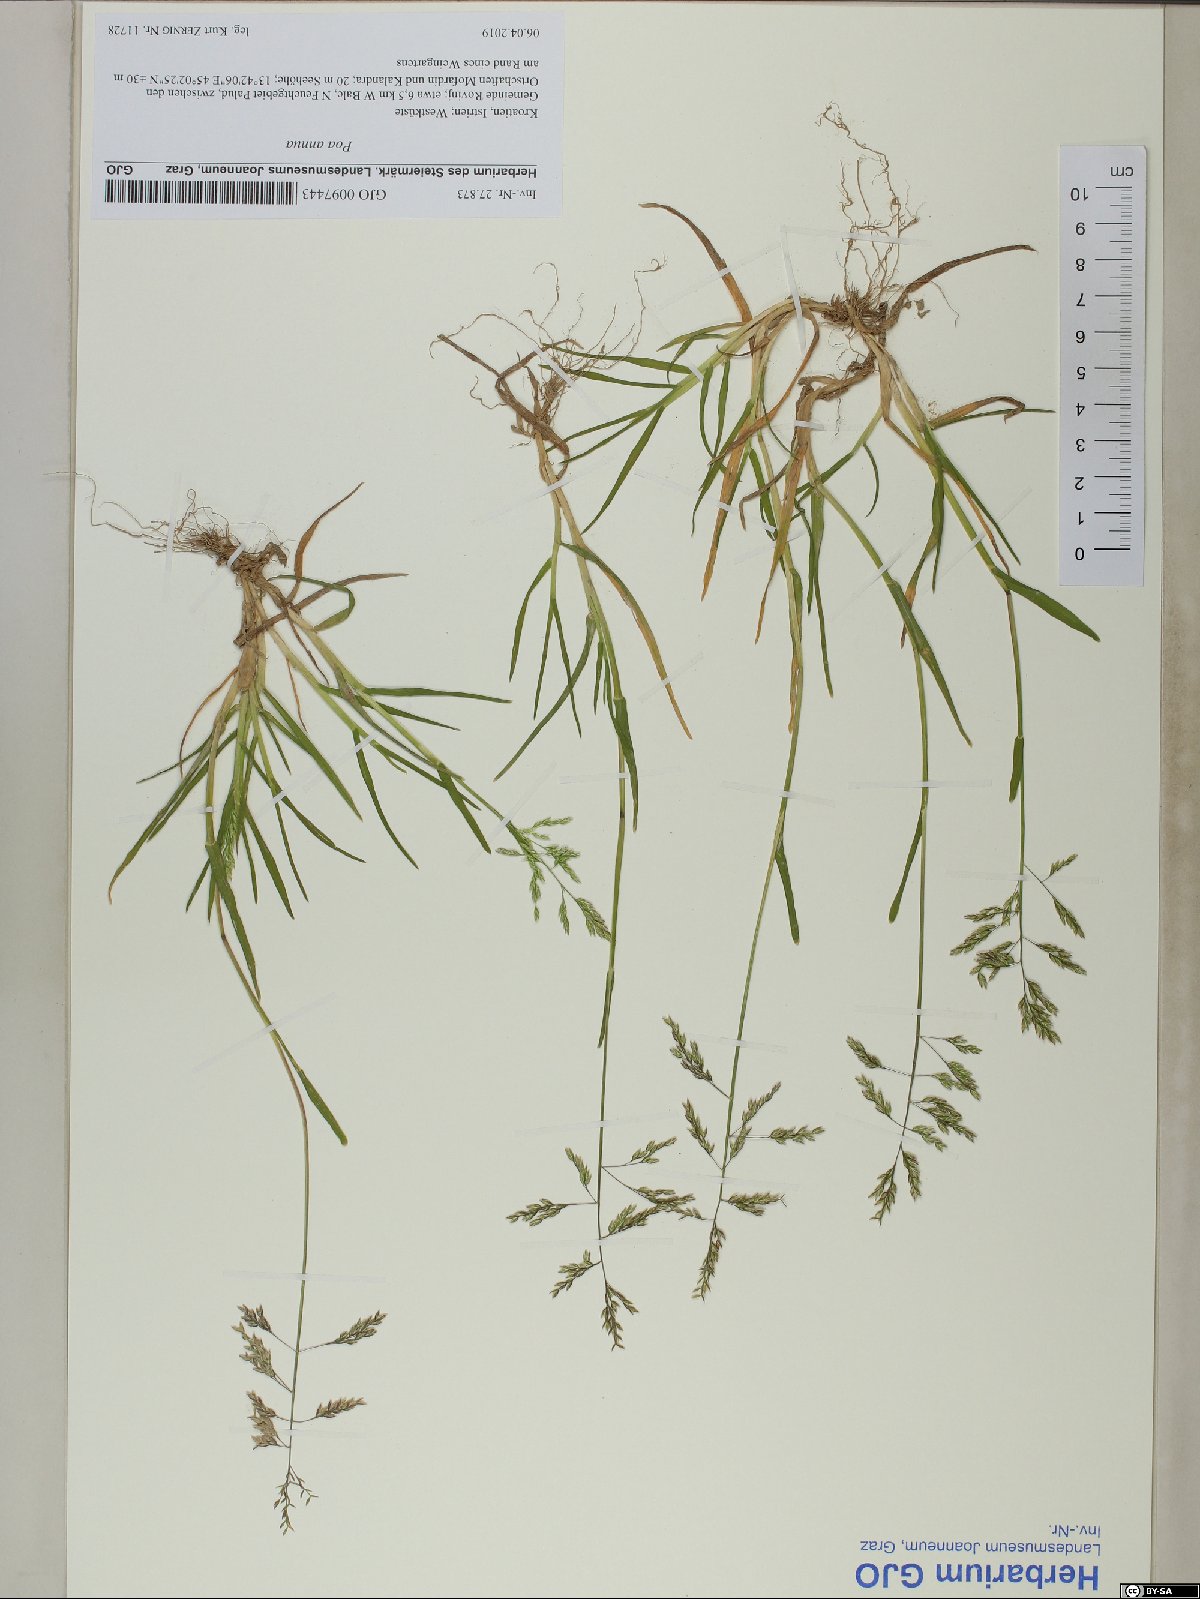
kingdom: Plantae
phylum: Tracheophyta
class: Liliopsida
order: Poales
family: Poaceae
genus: Poa
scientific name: Poa annua
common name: Annual bluegrass
